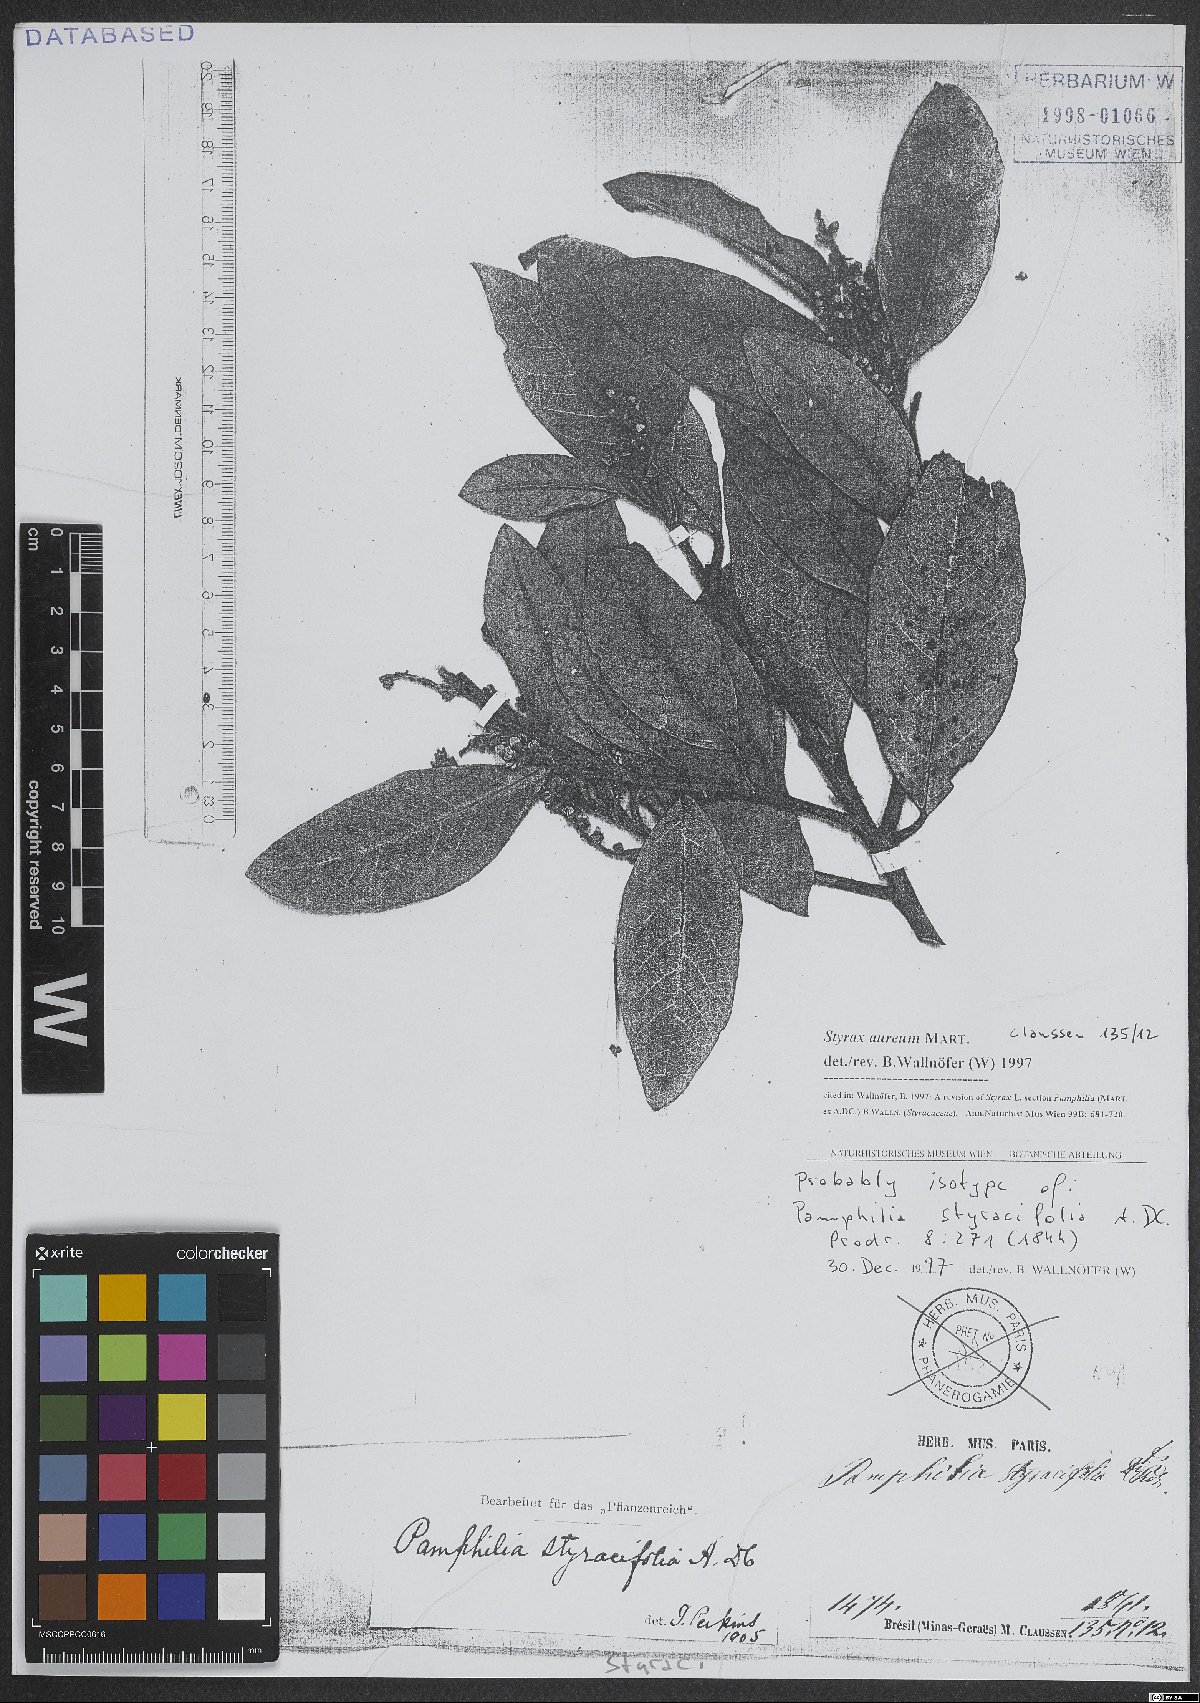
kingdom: Plantae
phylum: Tracheophyta
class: Magnoliopsida
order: Ericales
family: Styracaceae
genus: Styrax
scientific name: Styrax aureus
